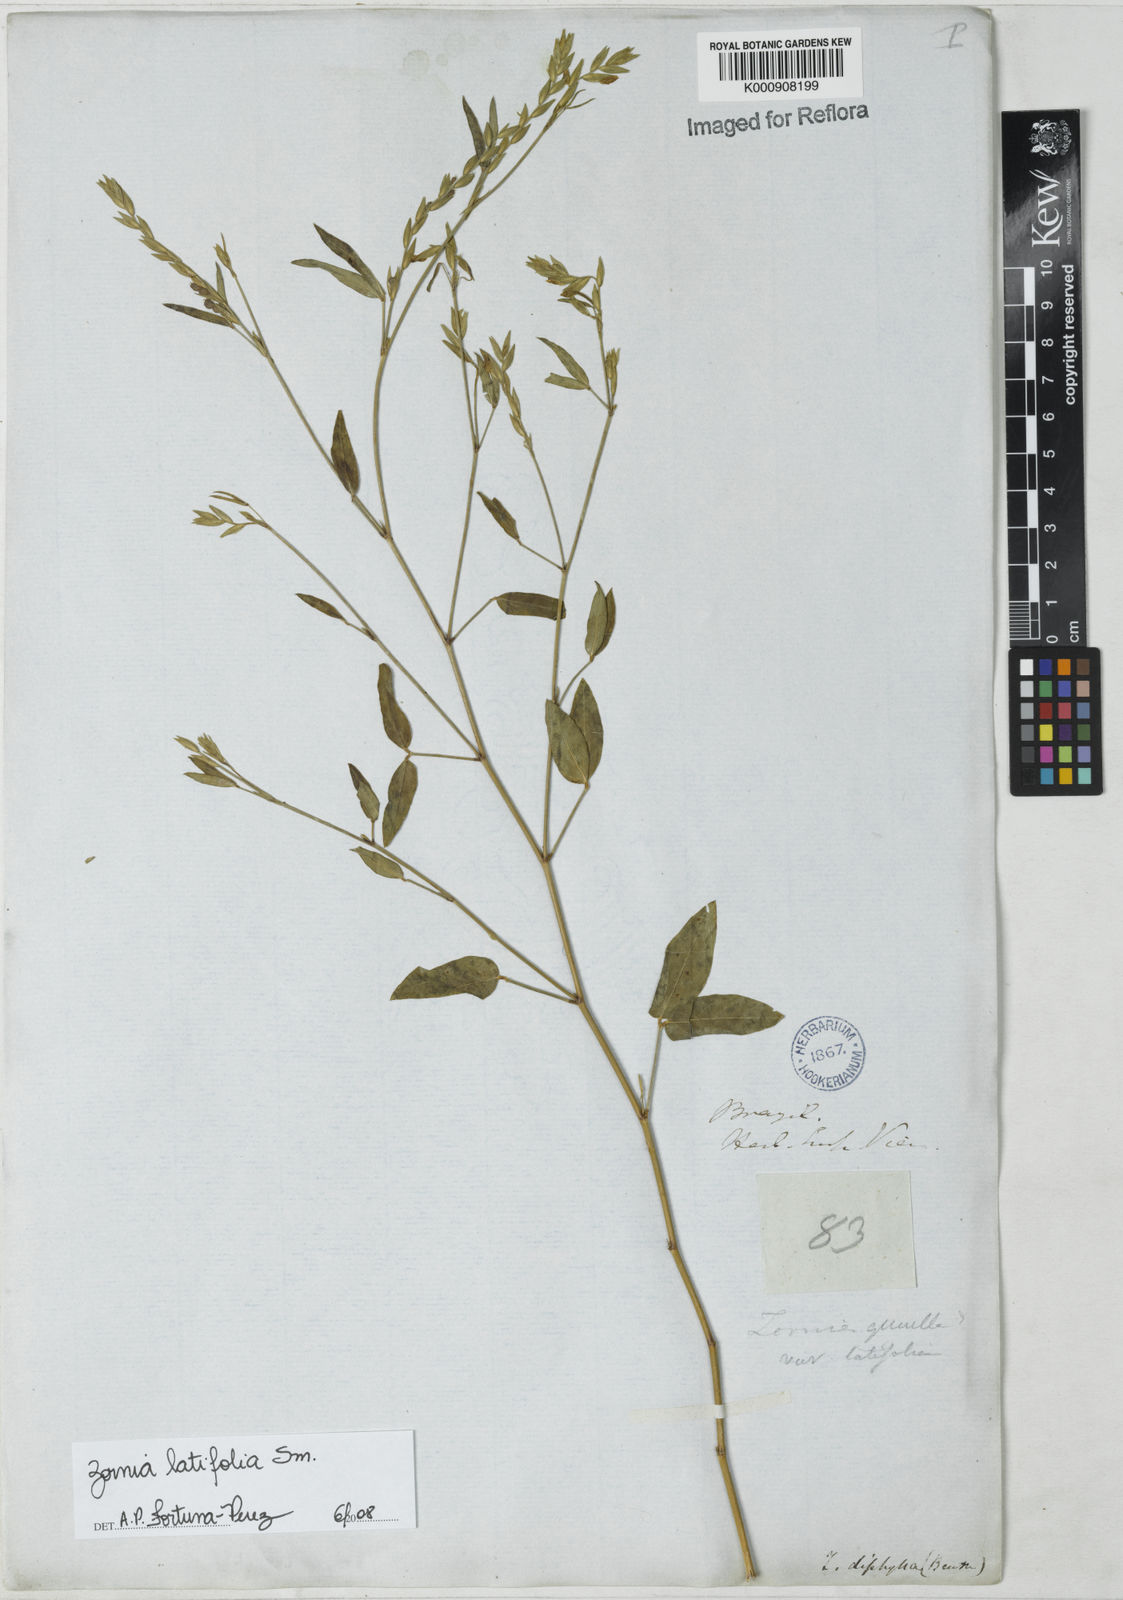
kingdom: Plantae
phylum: Tracheophyta
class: Magnoliopsida
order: Fabales
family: Fabaceae
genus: Zornia
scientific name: Zornia latifolia
